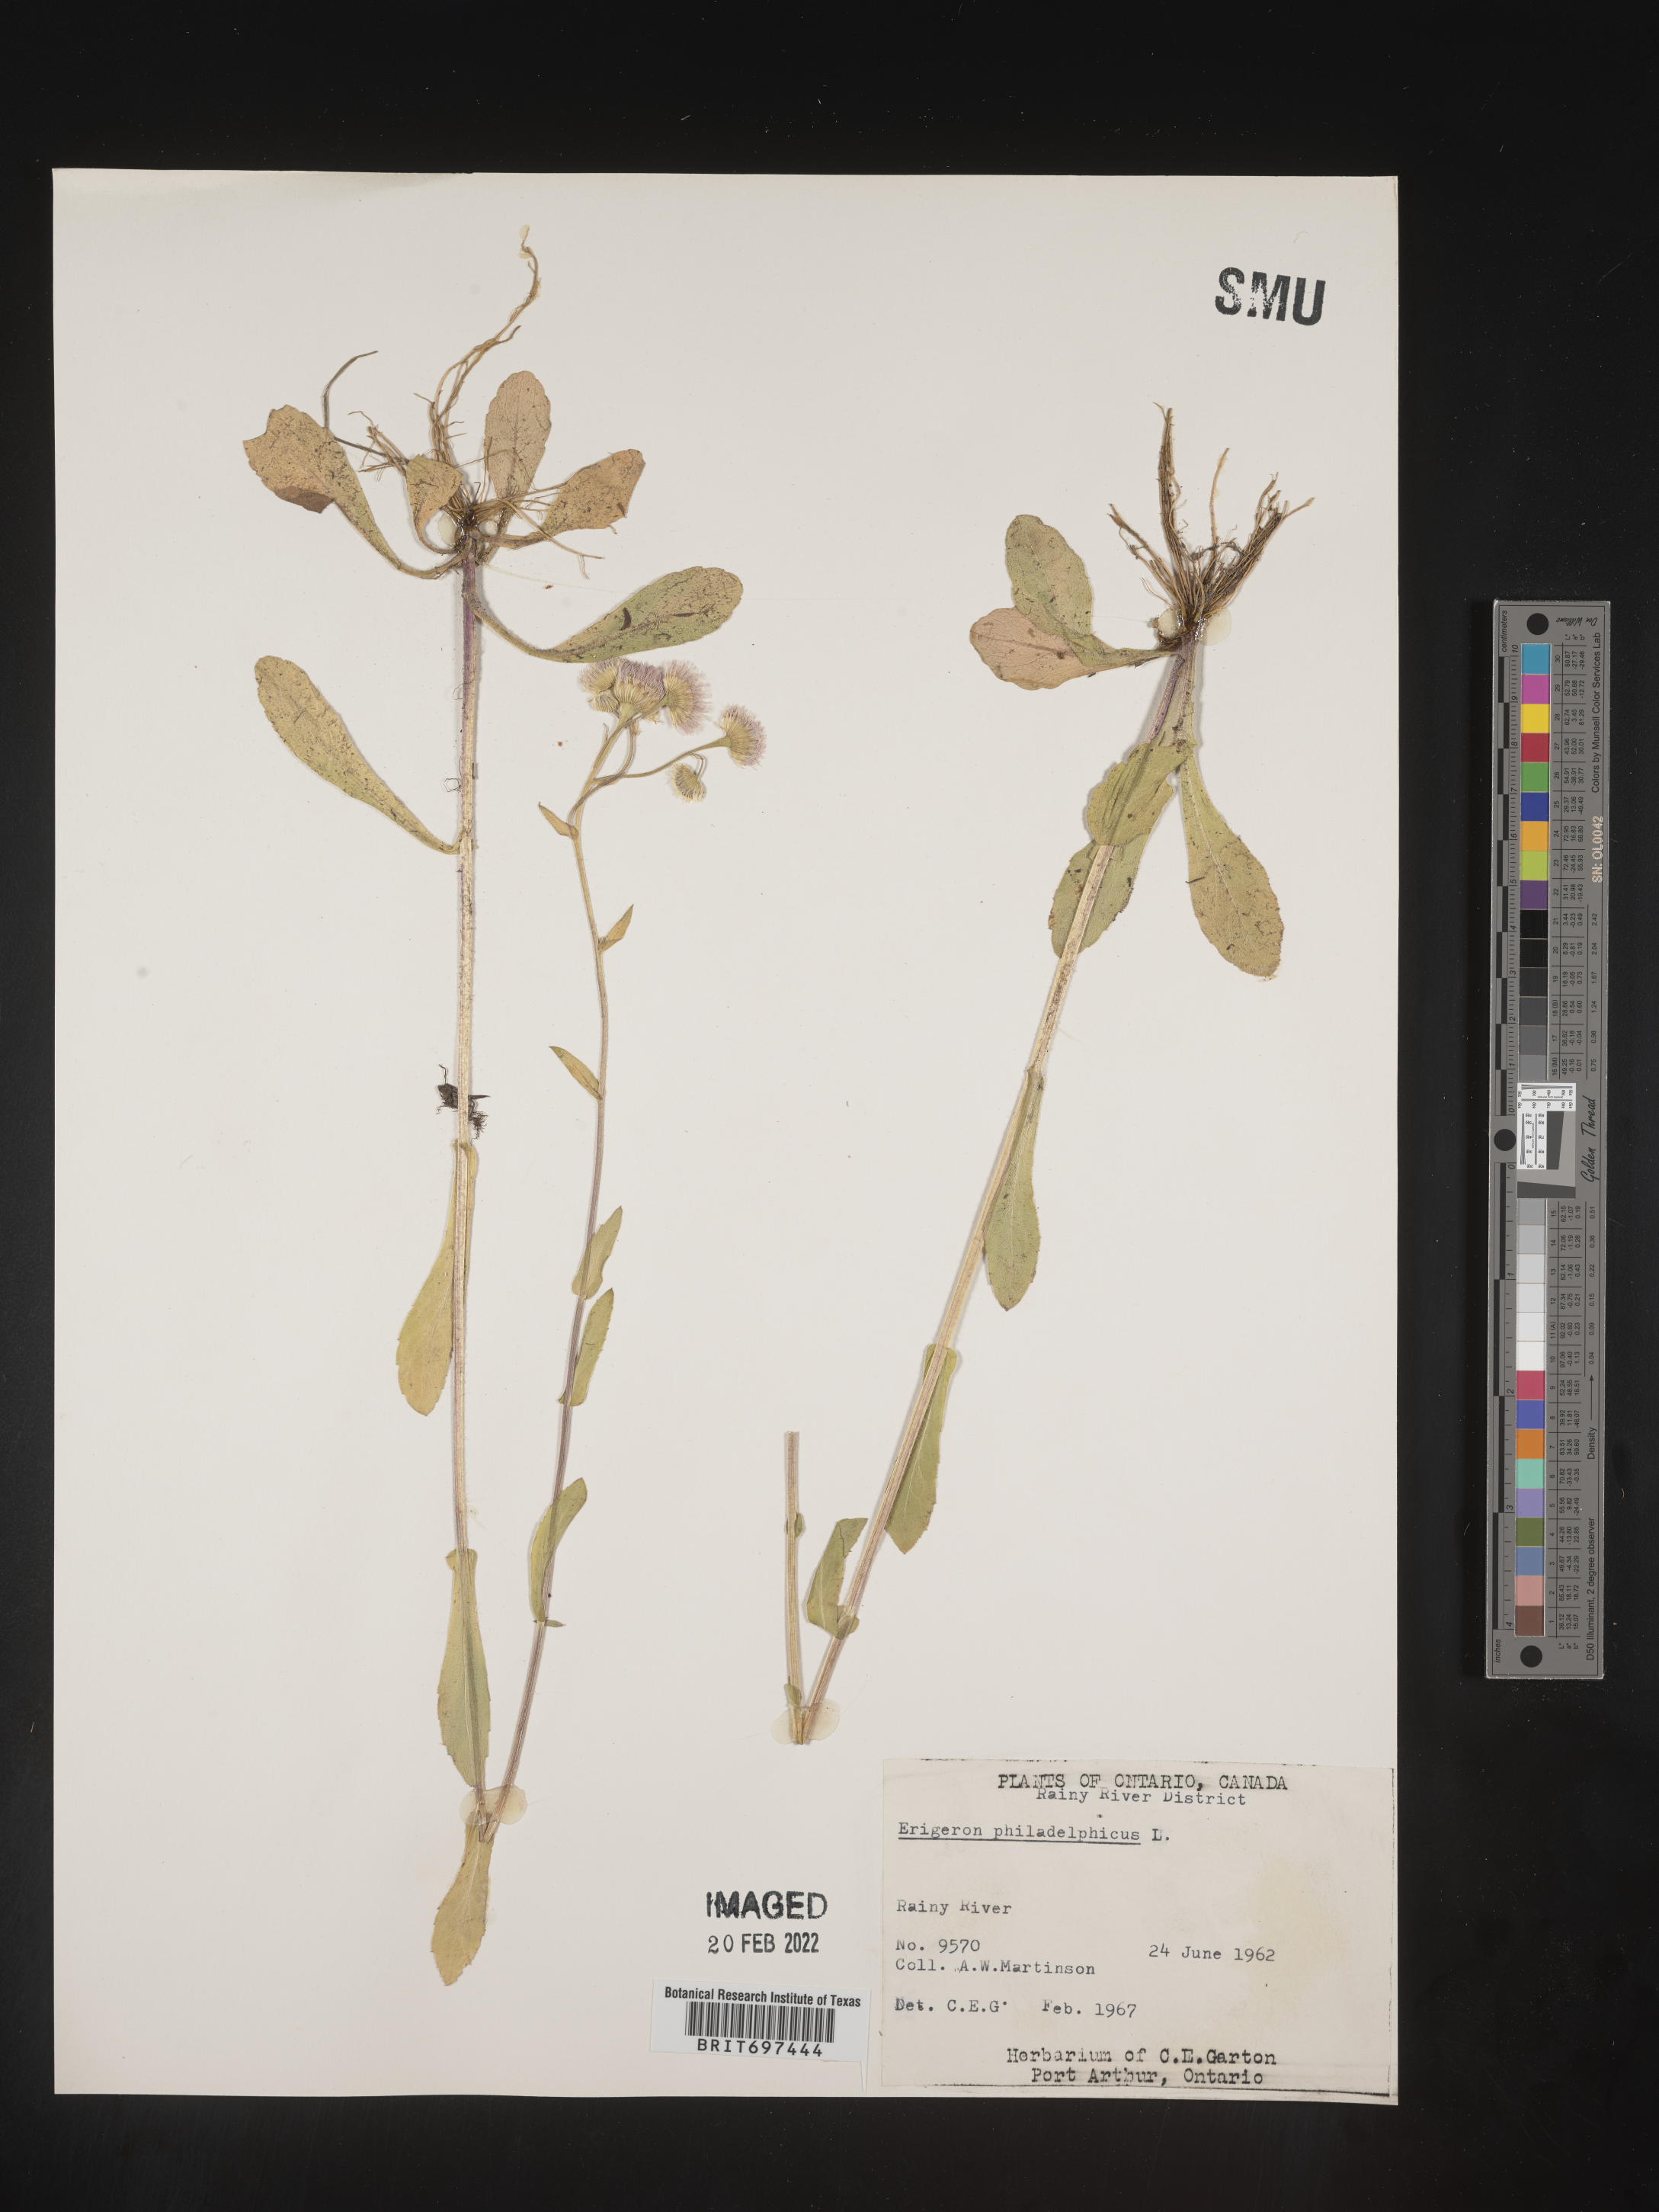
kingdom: Plantae
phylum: Tracheophyta
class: Magnoliopsida
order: Asterales
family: Asteraceae
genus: Erigeron
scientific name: Erigeron philadelphicus
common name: Robin's-plantain
